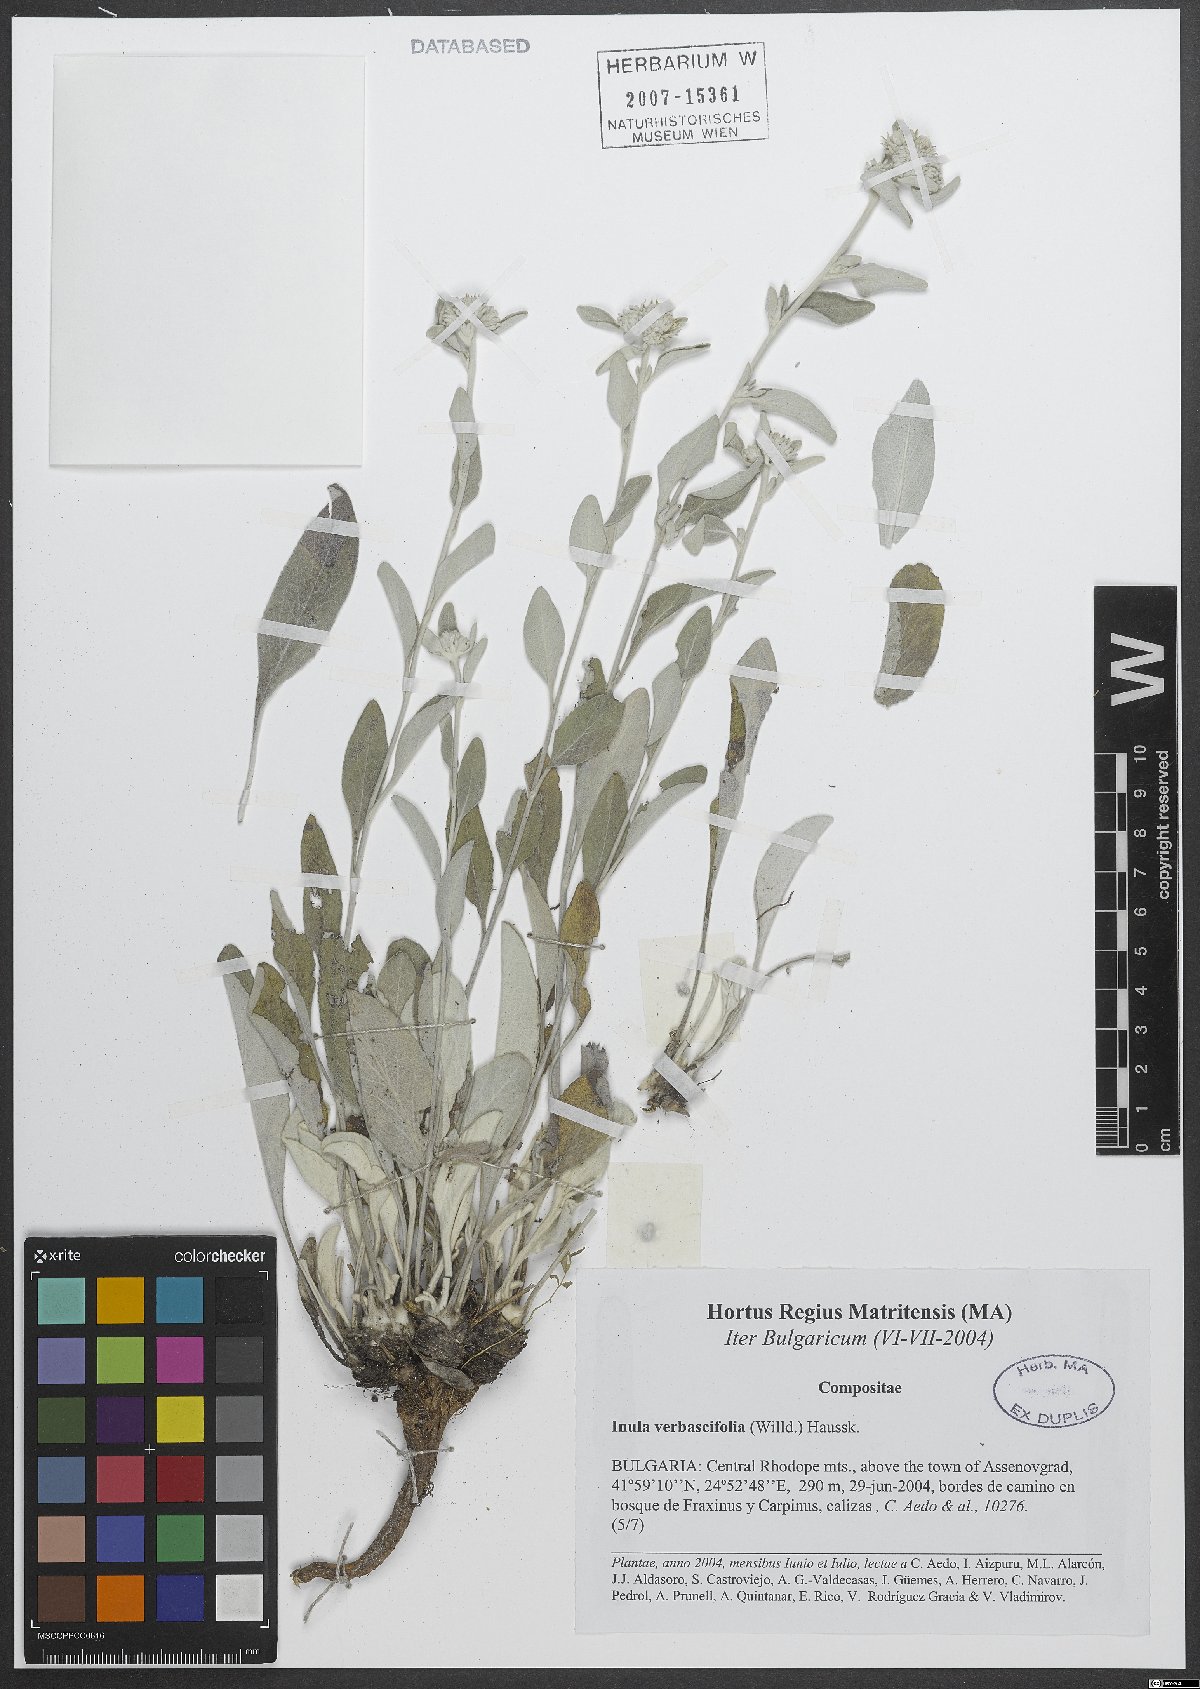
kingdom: Plantae
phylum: Tracheophyta
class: Magnoliopsida
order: Asterales
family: Asteraceae
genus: Pentanema
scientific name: Pentanema verbascifolium
